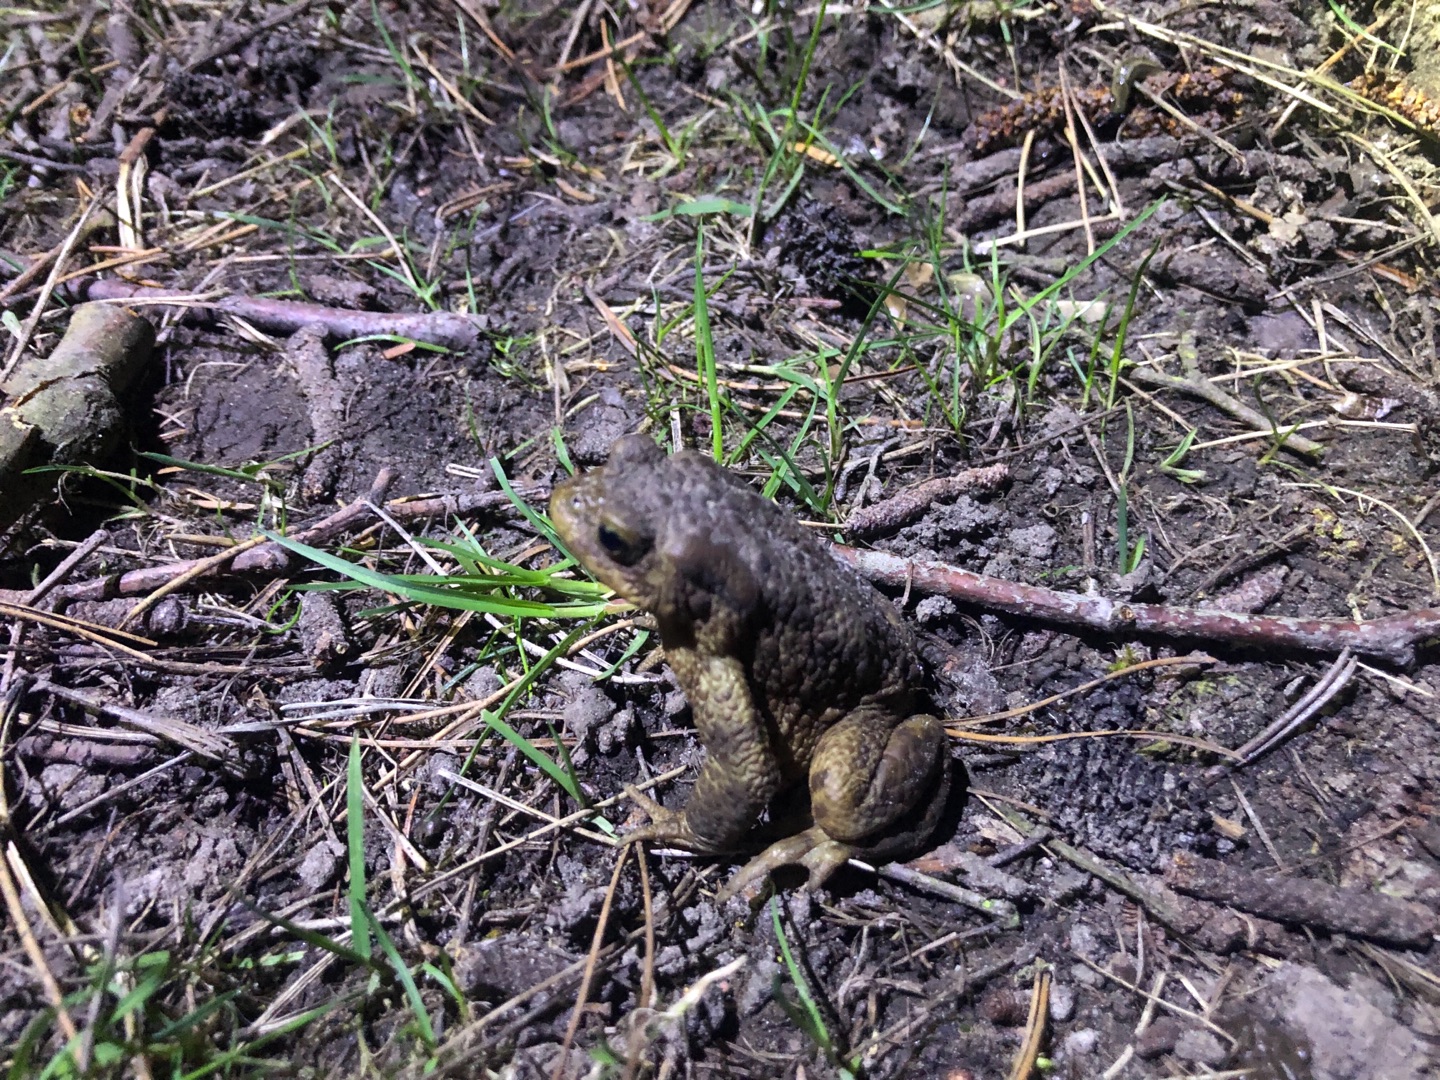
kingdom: Animalia
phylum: Chordata
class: Amphibia
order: Anura
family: Bufonidae
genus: Bufo
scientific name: Bufo bufo
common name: Skrubtudse
